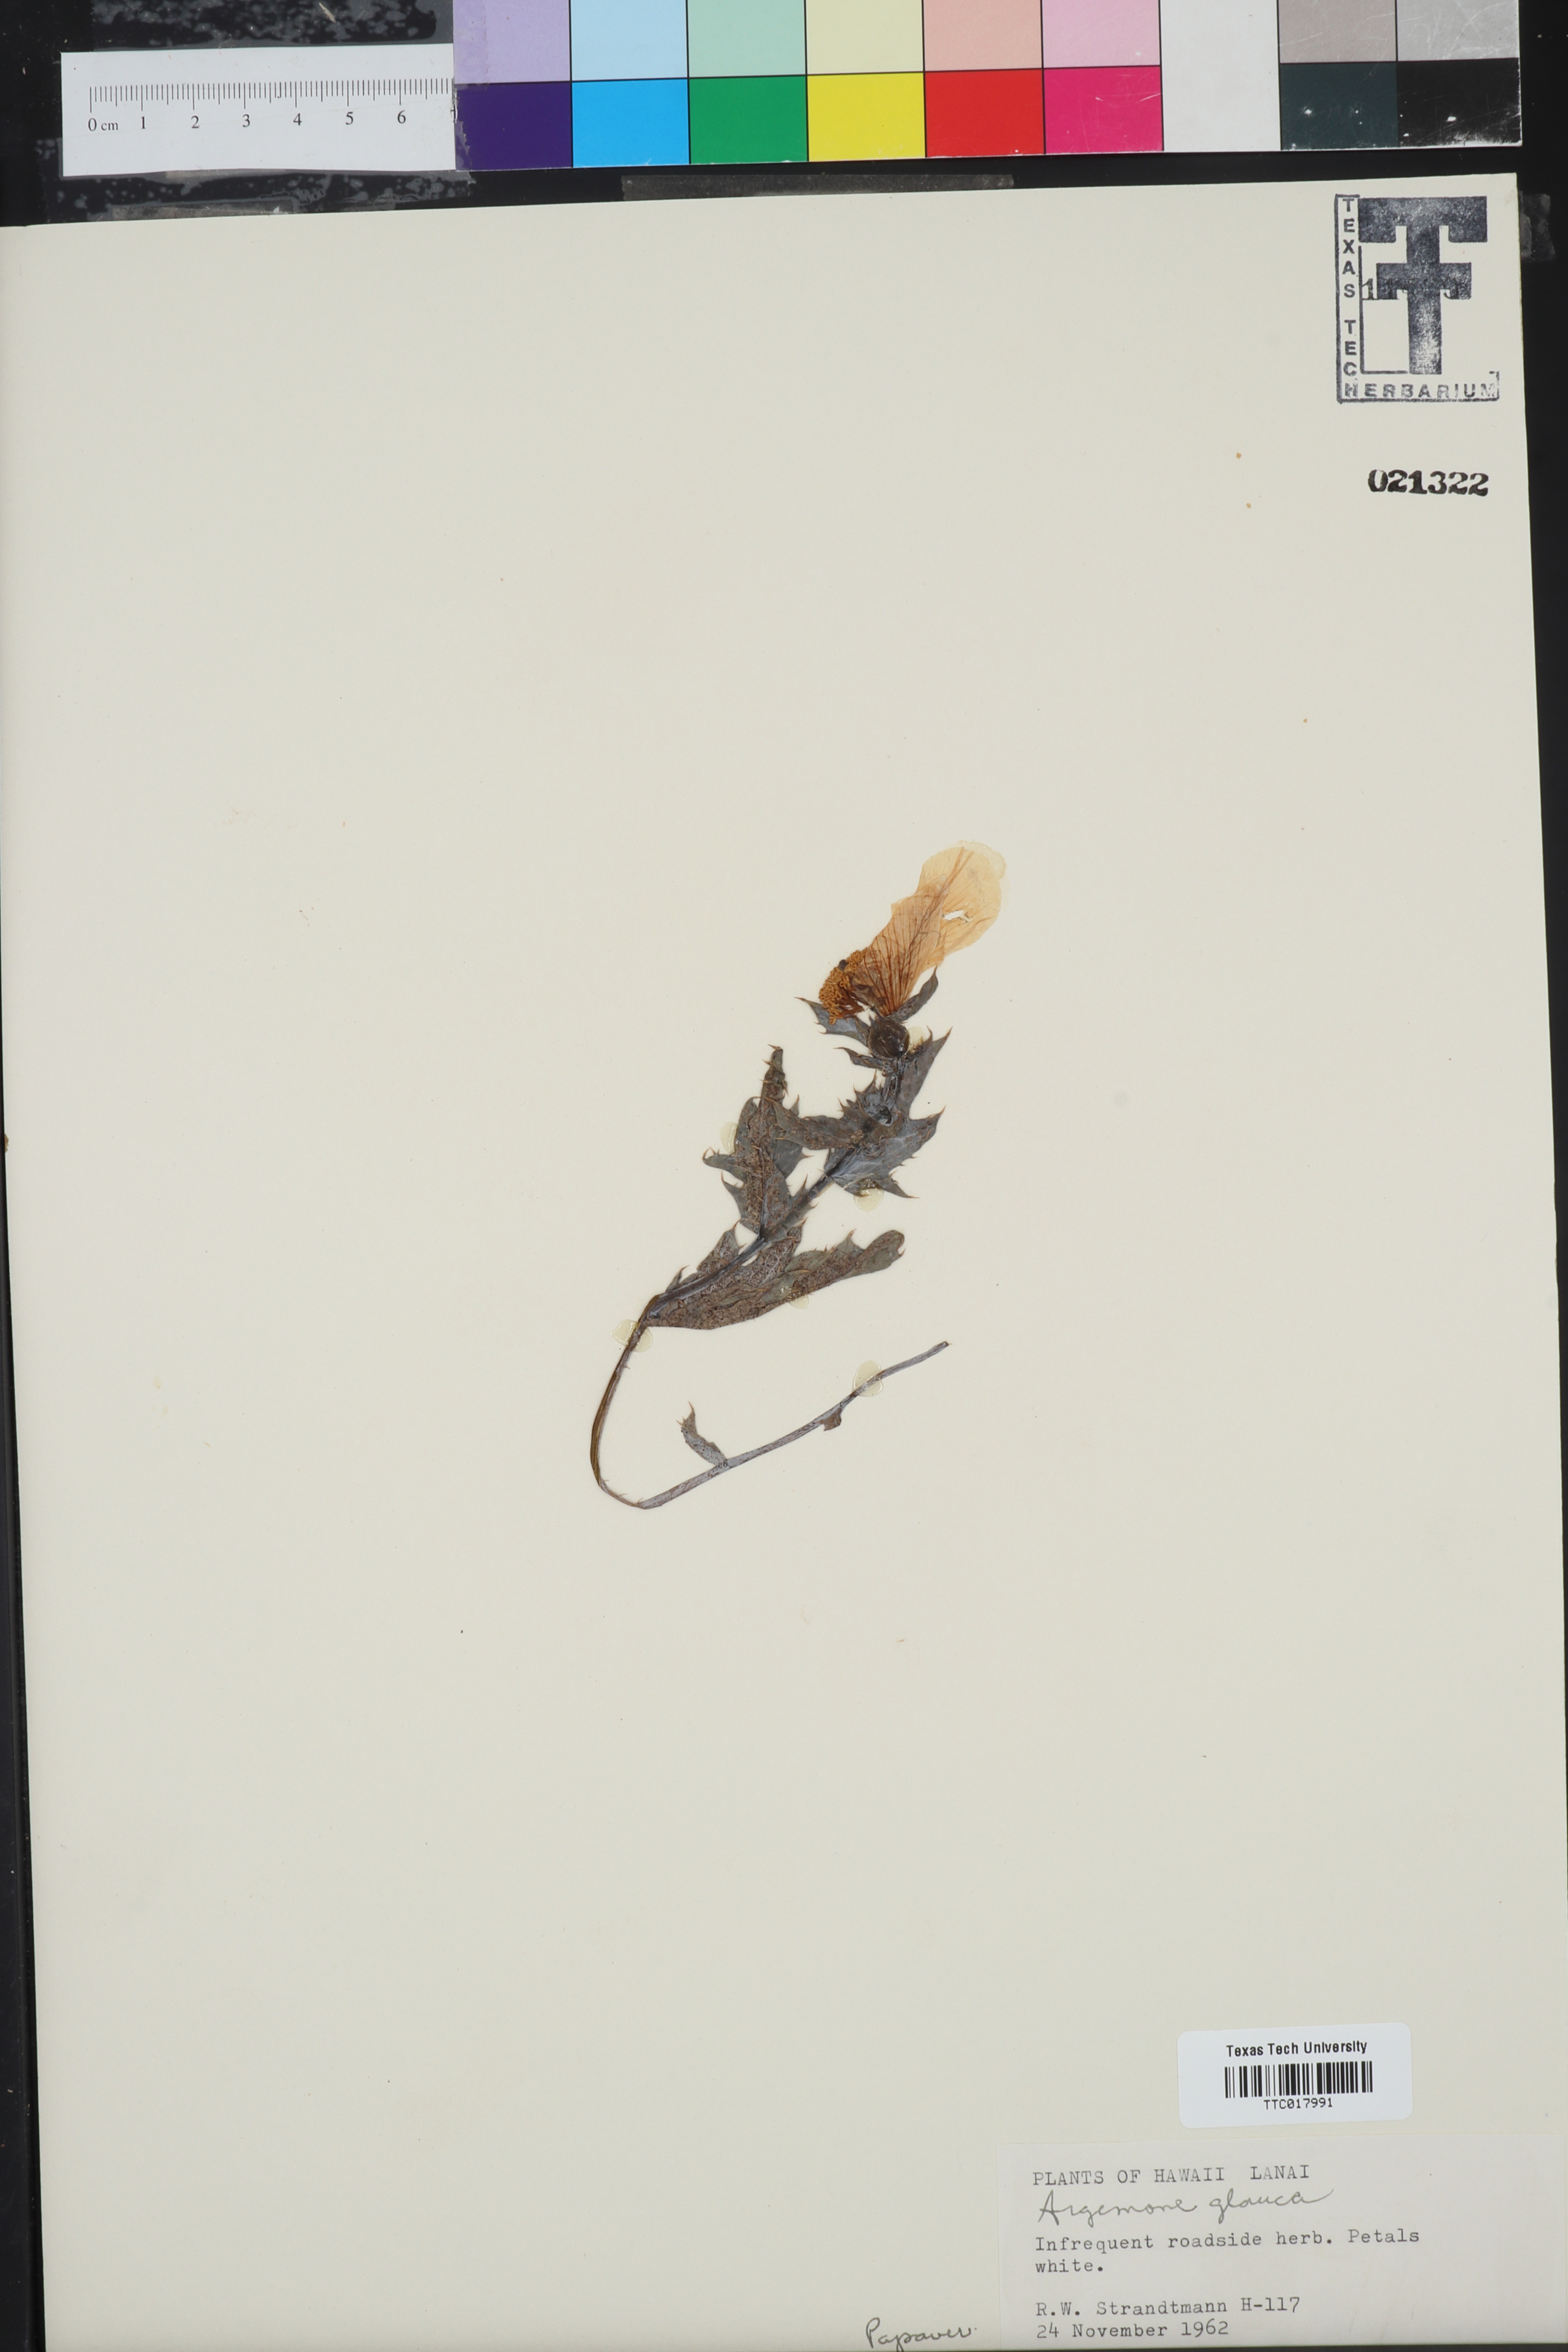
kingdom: Plantae
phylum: Tracheophyta
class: Magnoliopsida
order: Ranunculales
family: Papaveraceae
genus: Argemone
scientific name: Argemone glauca
